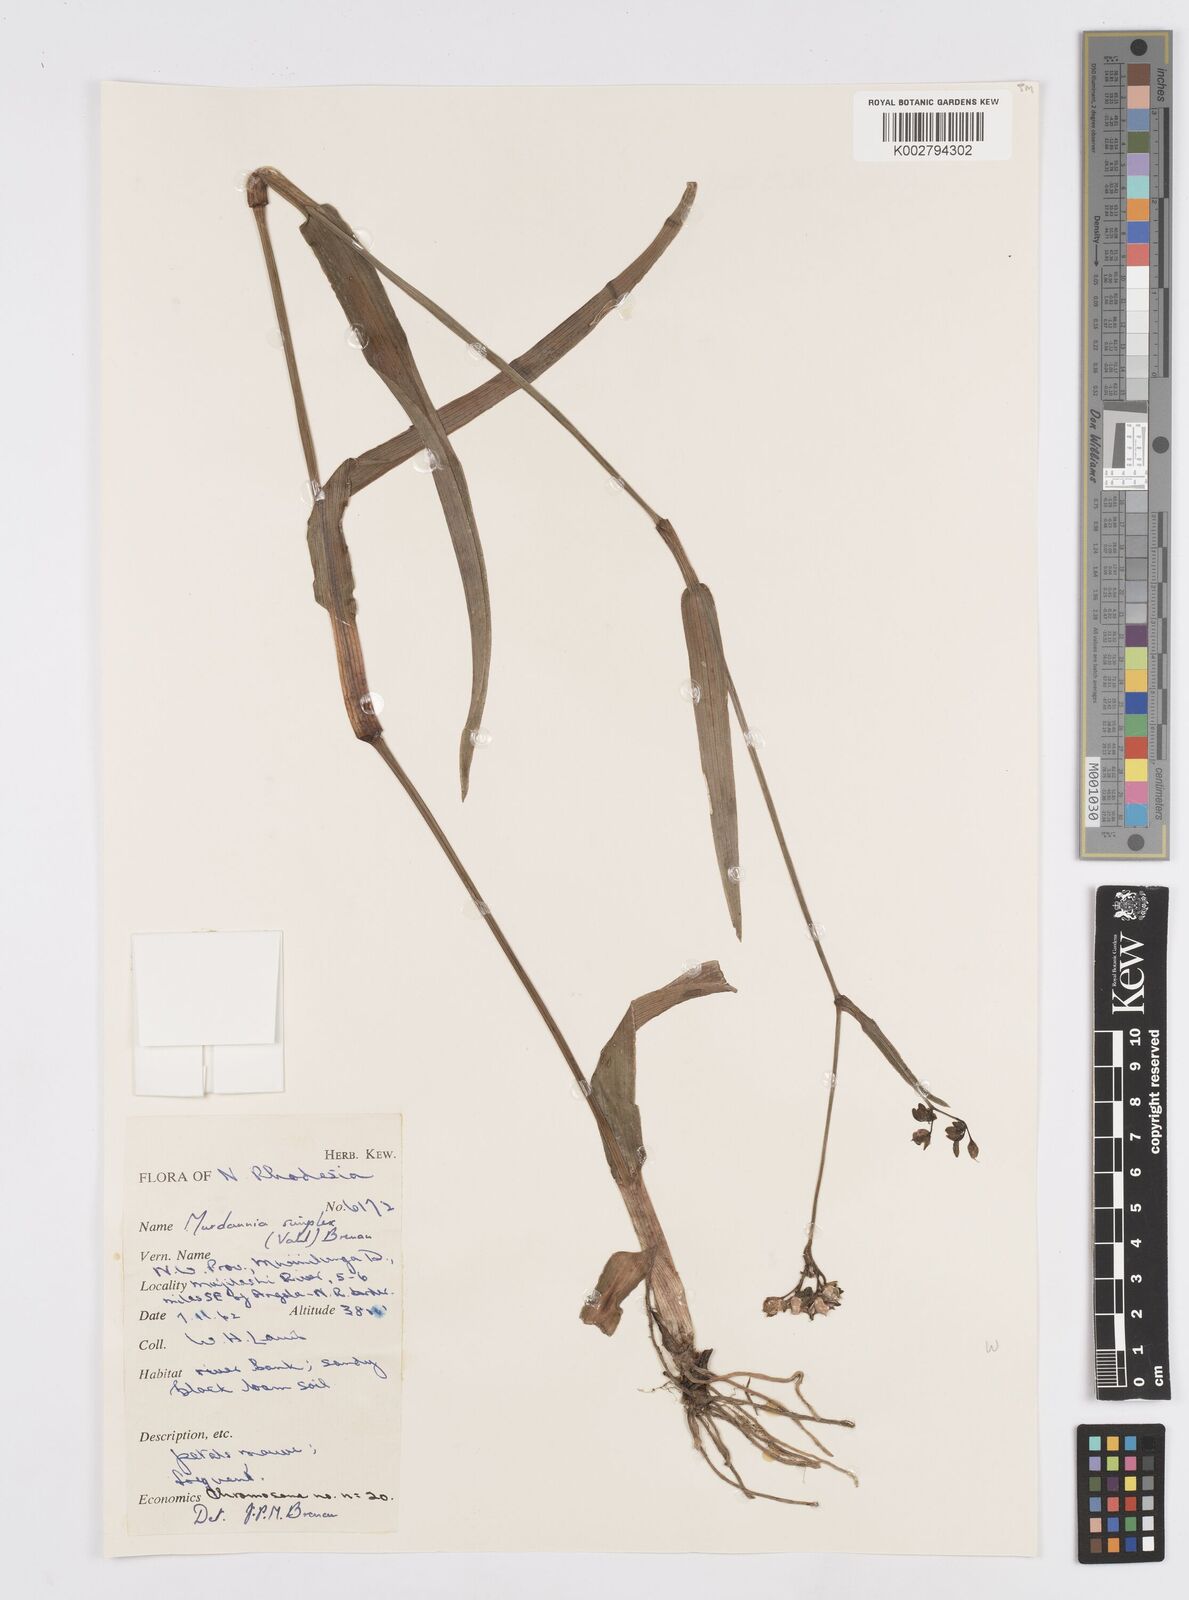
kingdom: Plantae
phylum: Tracheophyta
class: Liliopsida
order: Commelinales
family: Commelinaceae
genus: Murdannia
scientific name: Murdannia simplex
